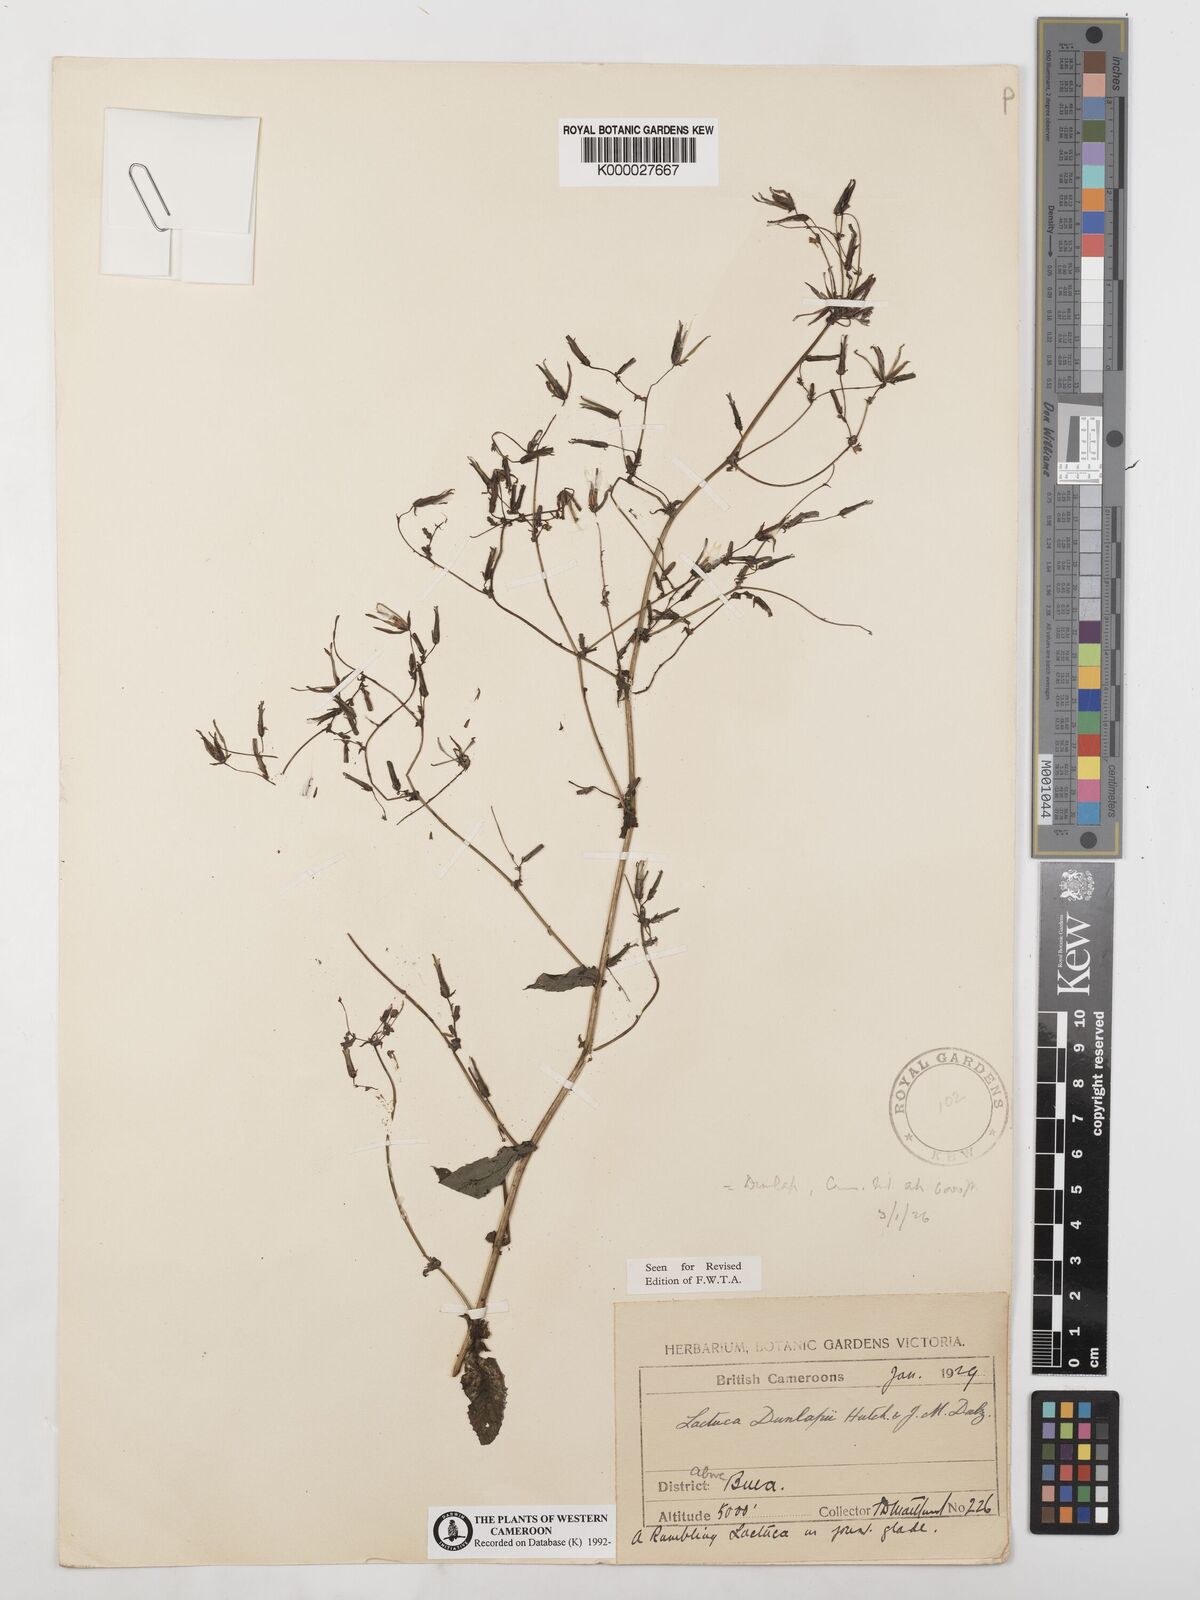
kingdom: Plantae
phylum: Tracheophyta
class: Magnoliopsida
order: Asterales
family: Asteraceae
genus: Lactuca
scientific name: Lactuca glandulifera
